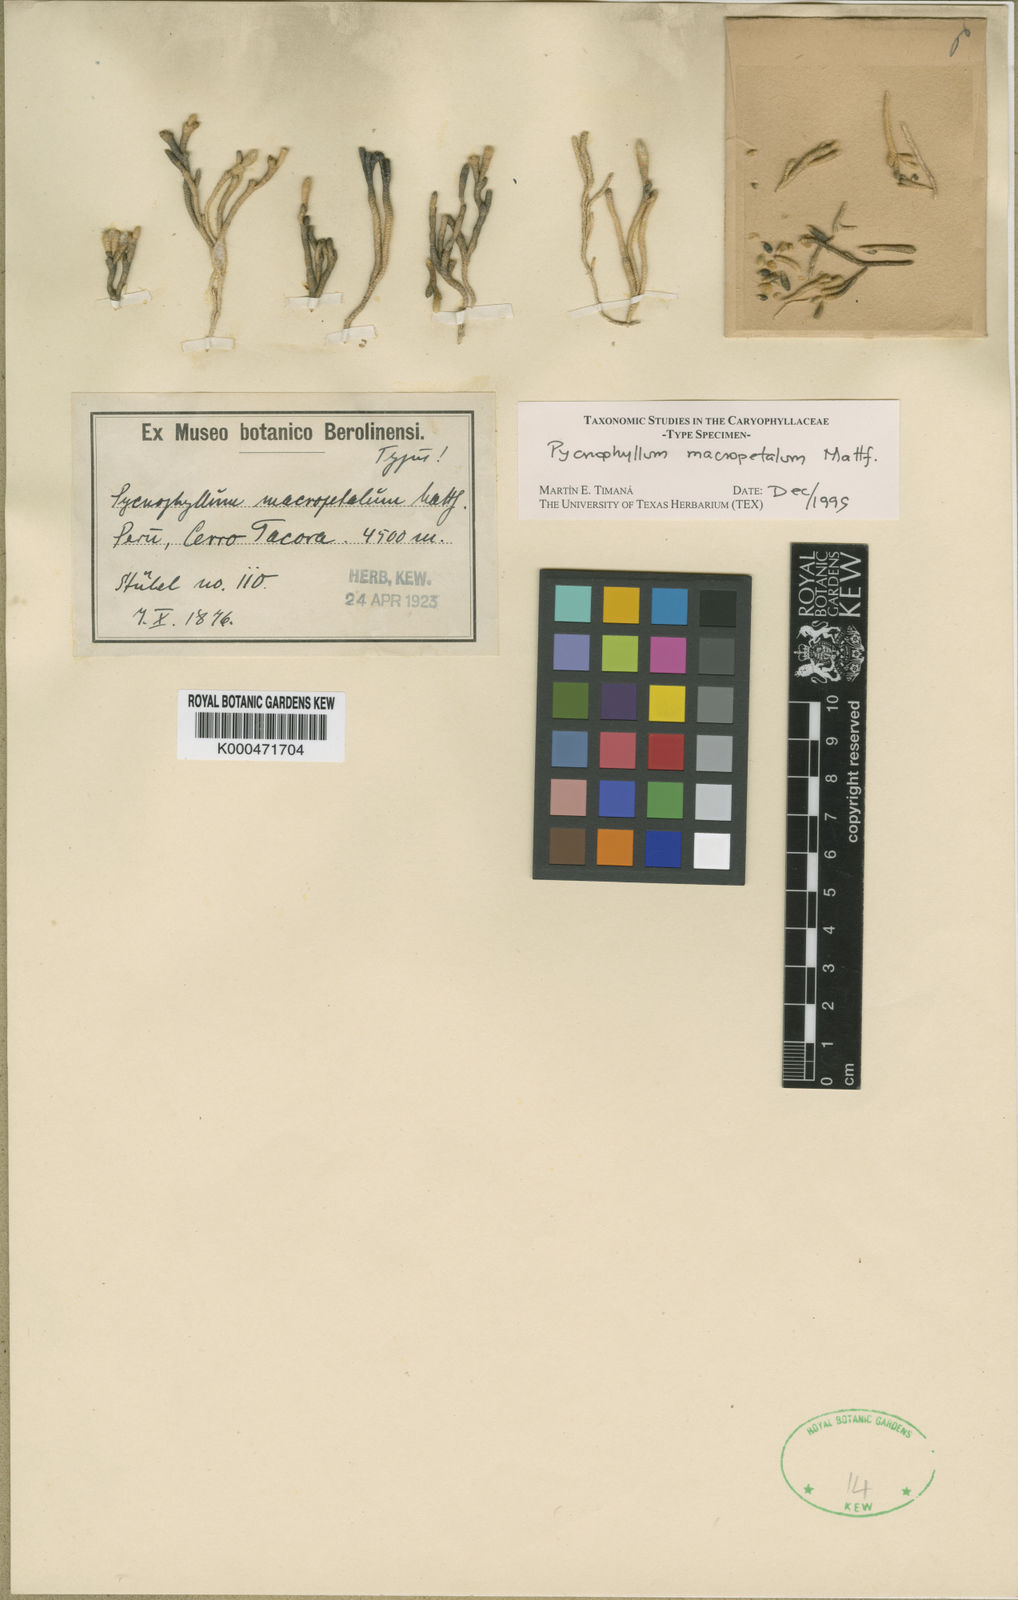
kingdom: Plantae
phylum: Tracheophyta
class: Magnoliopsida
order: Caryophyllales
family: Caryophyllaceae
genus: Pycnophyllum
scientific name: Pycnophyllum macropetalum
